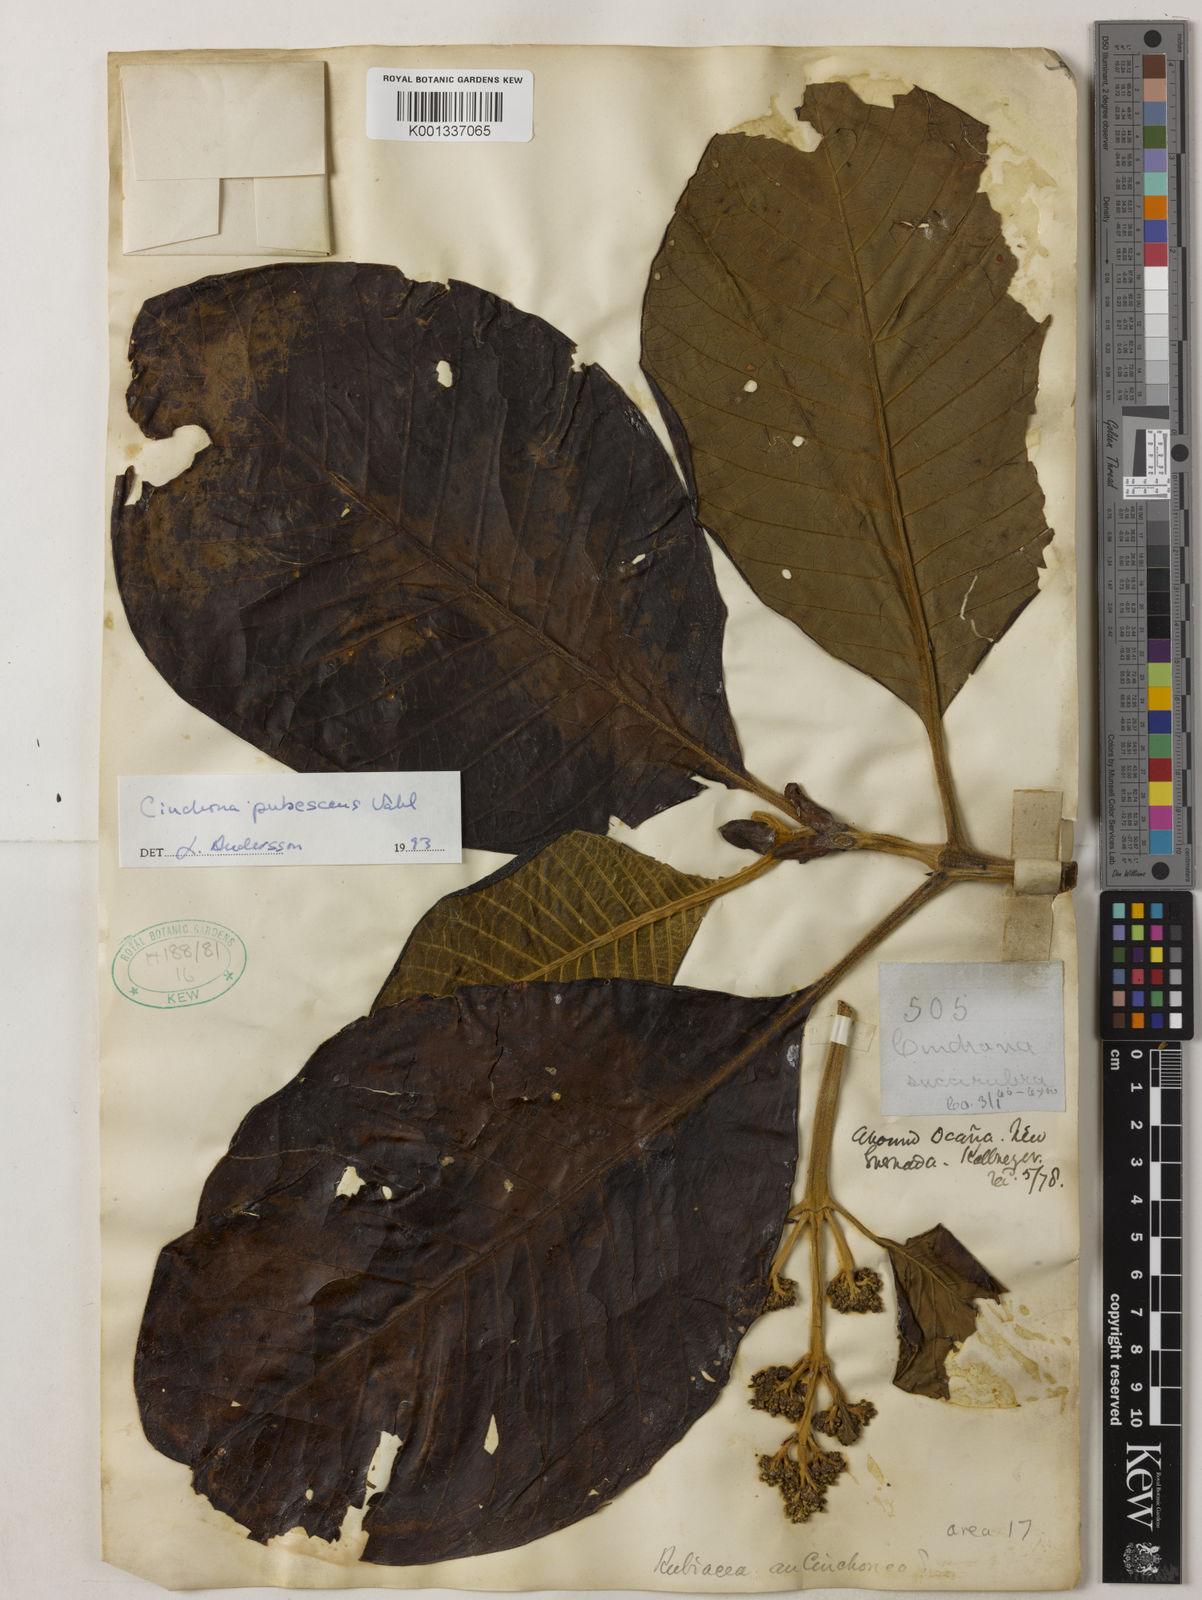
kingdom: Plantae
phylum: Tracheophyta
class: Magnoliopsida
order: Gentianales
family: Rubiaceae
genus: Cinchona
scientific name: Cinchona pubescens
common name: Quinine
